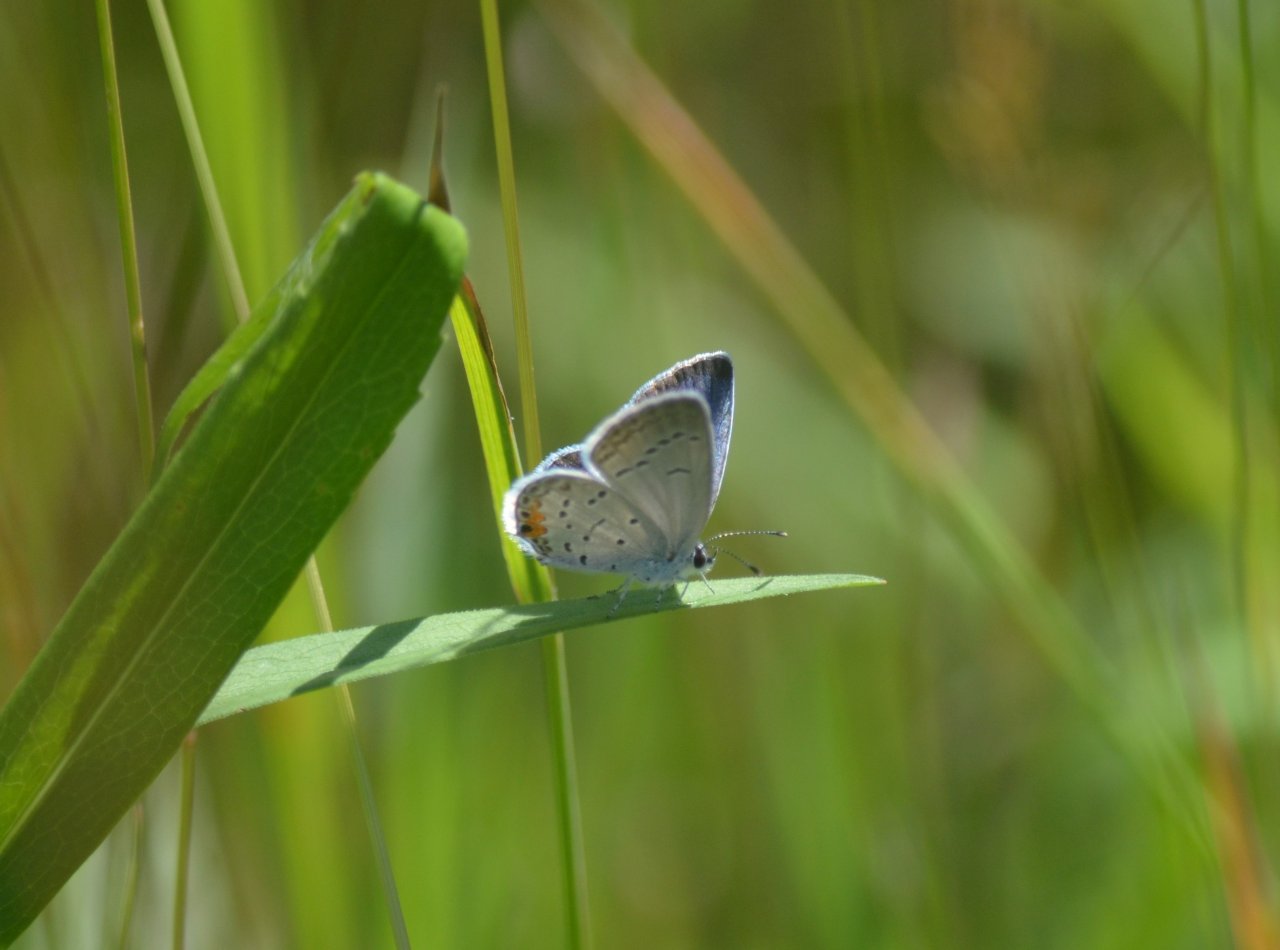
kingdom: Animalia
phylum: Arthropoda
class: Insecta
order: Lepidoptera
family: Lycaenidae
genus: Elkalyce
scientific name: Elkalyce comyntas
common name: Eastern Tailed-Blue
